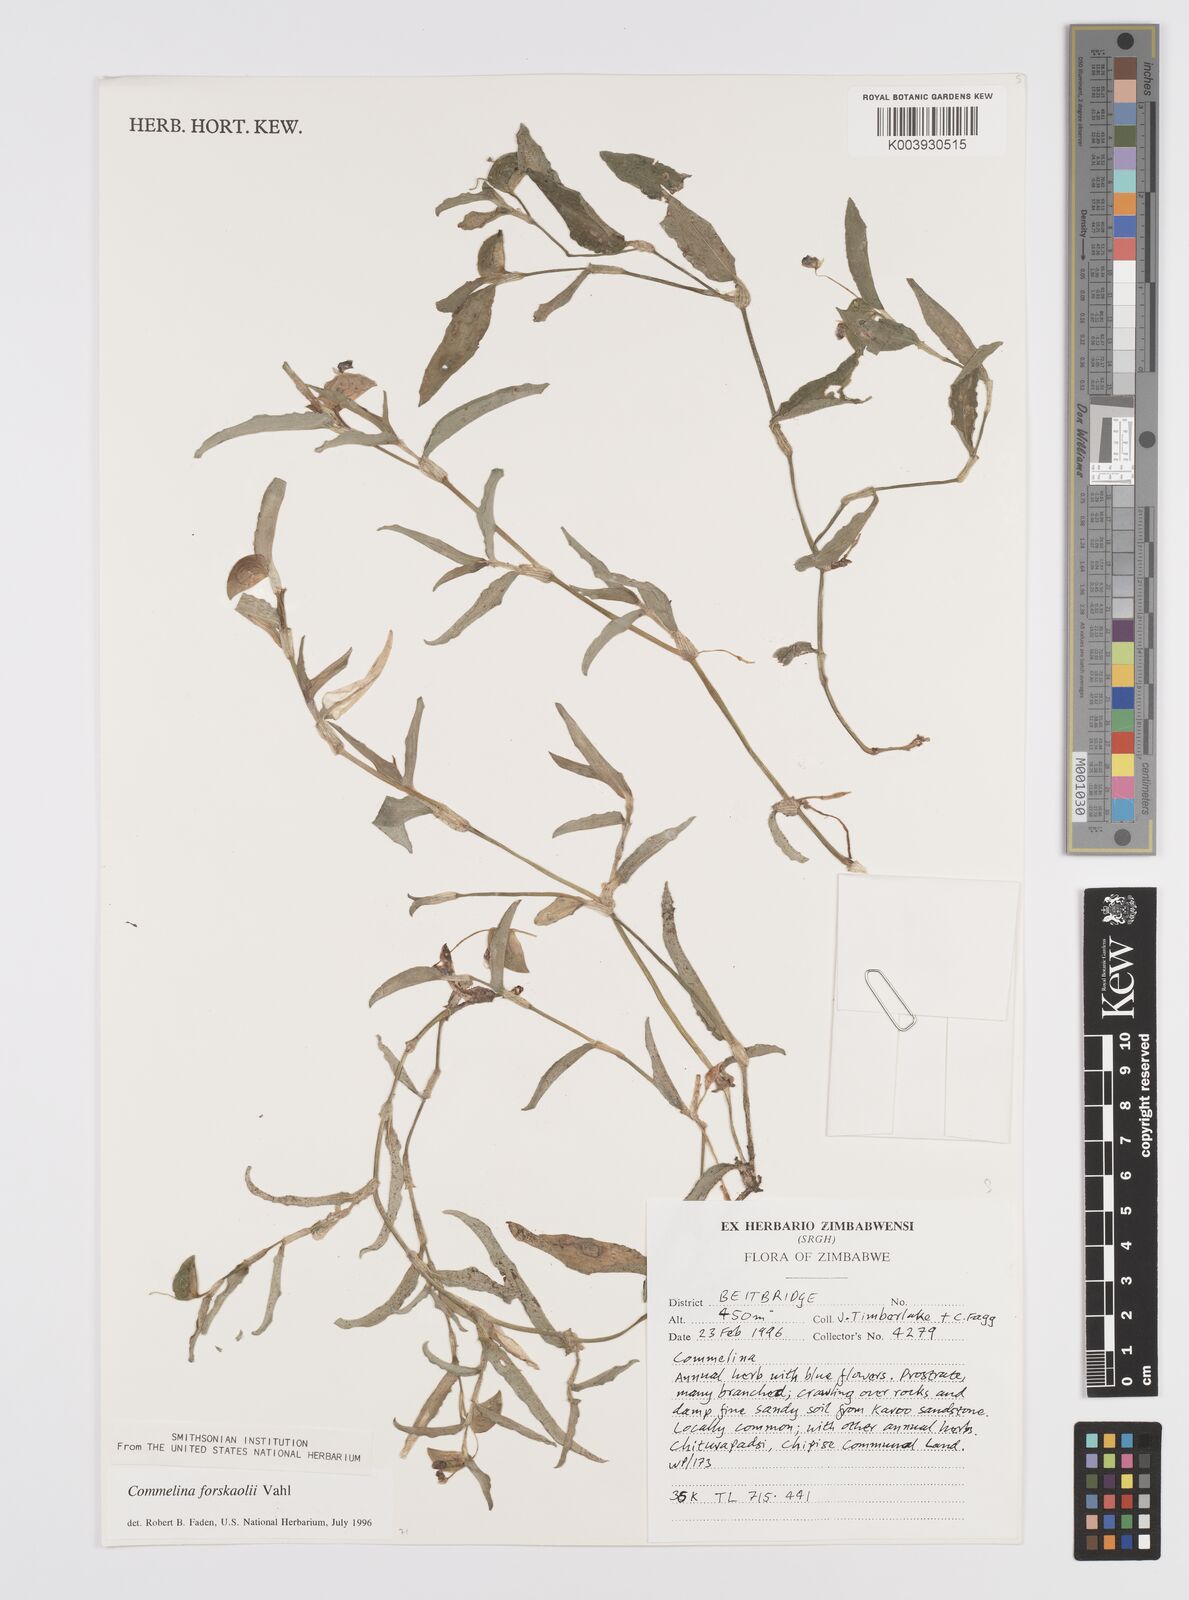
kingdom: Plantae
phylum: Tracheophyta
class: Liliopsida
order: Commelinales
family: Commelinaceae
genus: Commelina
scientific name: Commelina forskaolii
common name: Rat's ear
